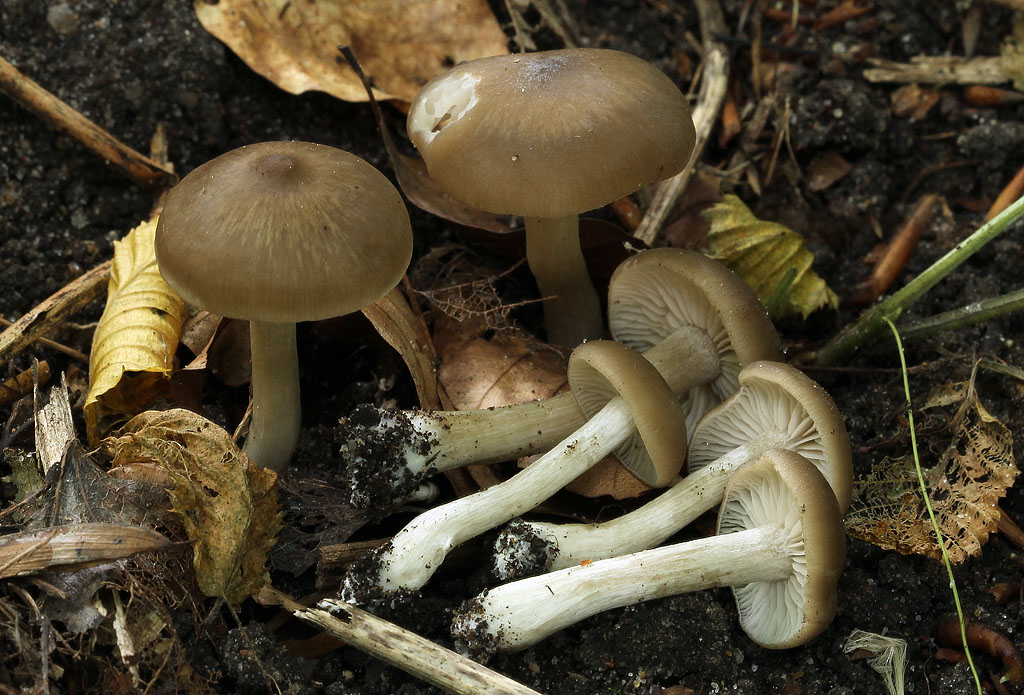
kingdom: Fungi
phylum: Basidiomycota
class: Agaricomycetes
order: Agaricales
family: Entolomataceae
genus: Entoloma
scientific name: Entoloma sordidulum
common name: smudsig rødblad
